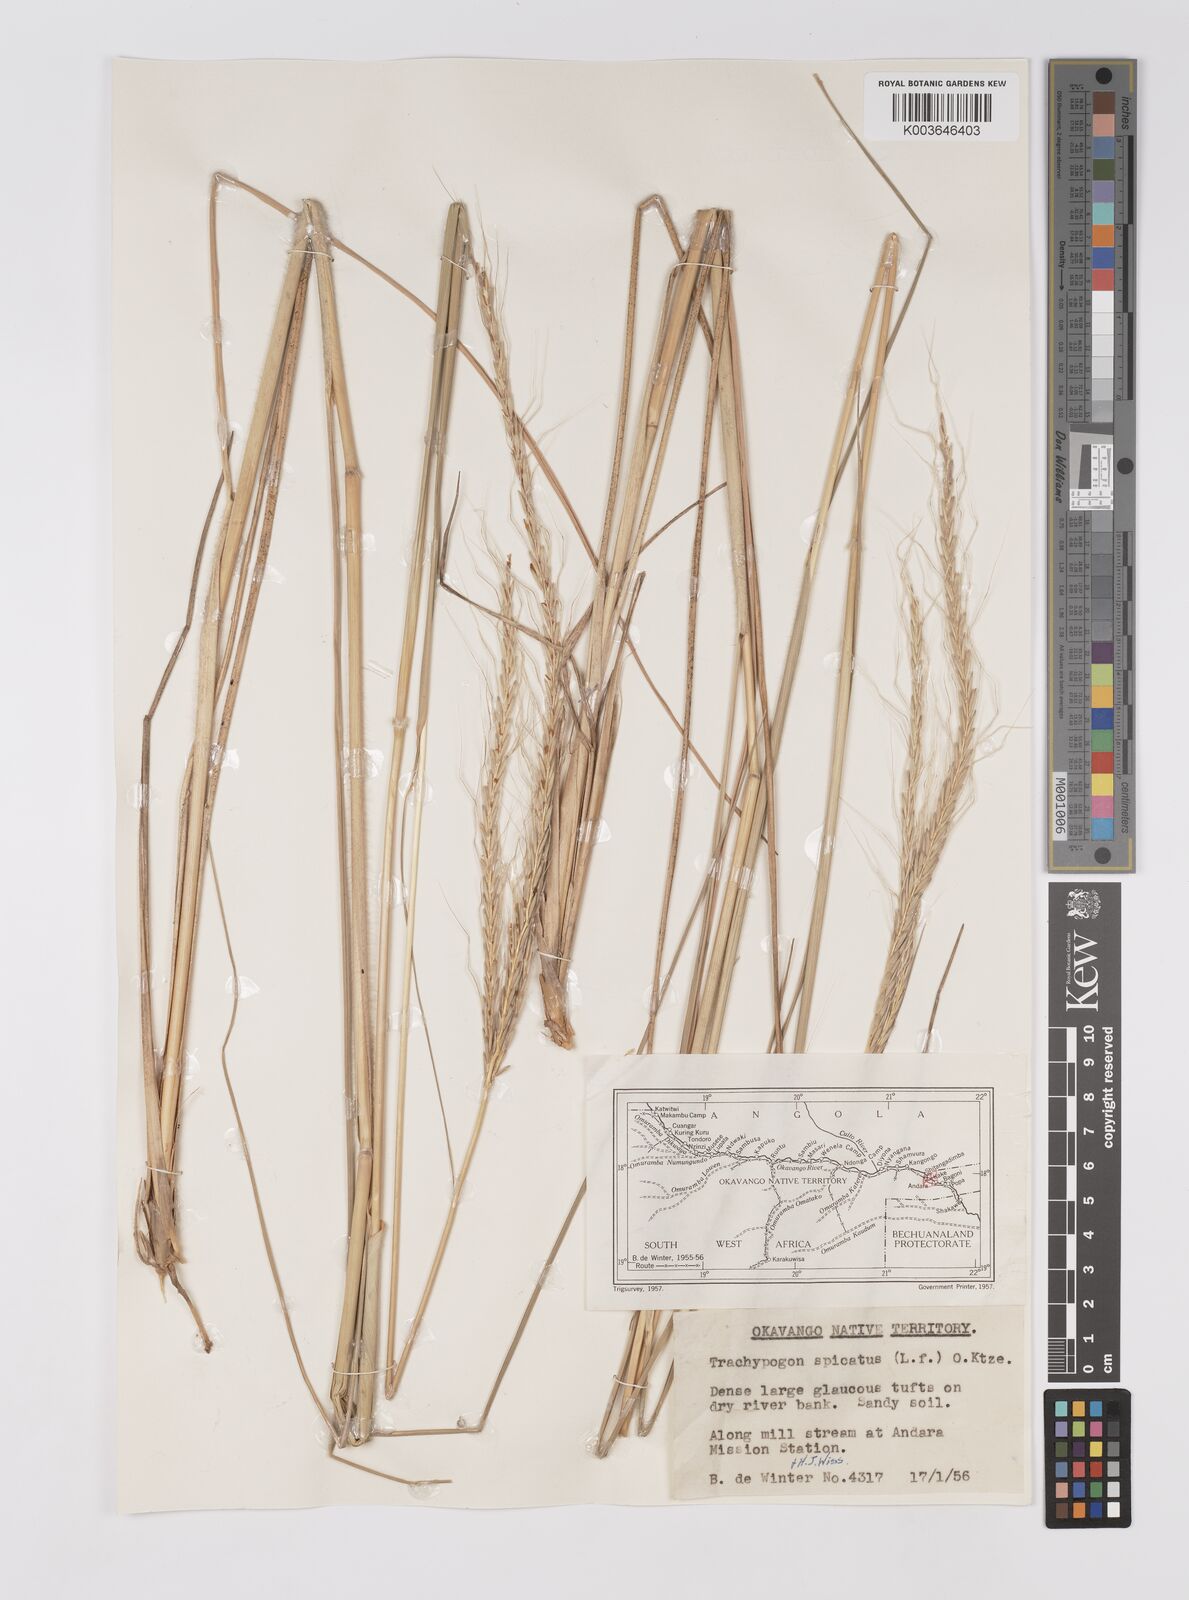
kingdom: Plantae
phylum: Tracheophyta
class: Liliopsida
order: Poales
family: Poaceae
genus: Trachypogon
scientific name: Trachypogon spicatus
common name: Crinkle-awn
